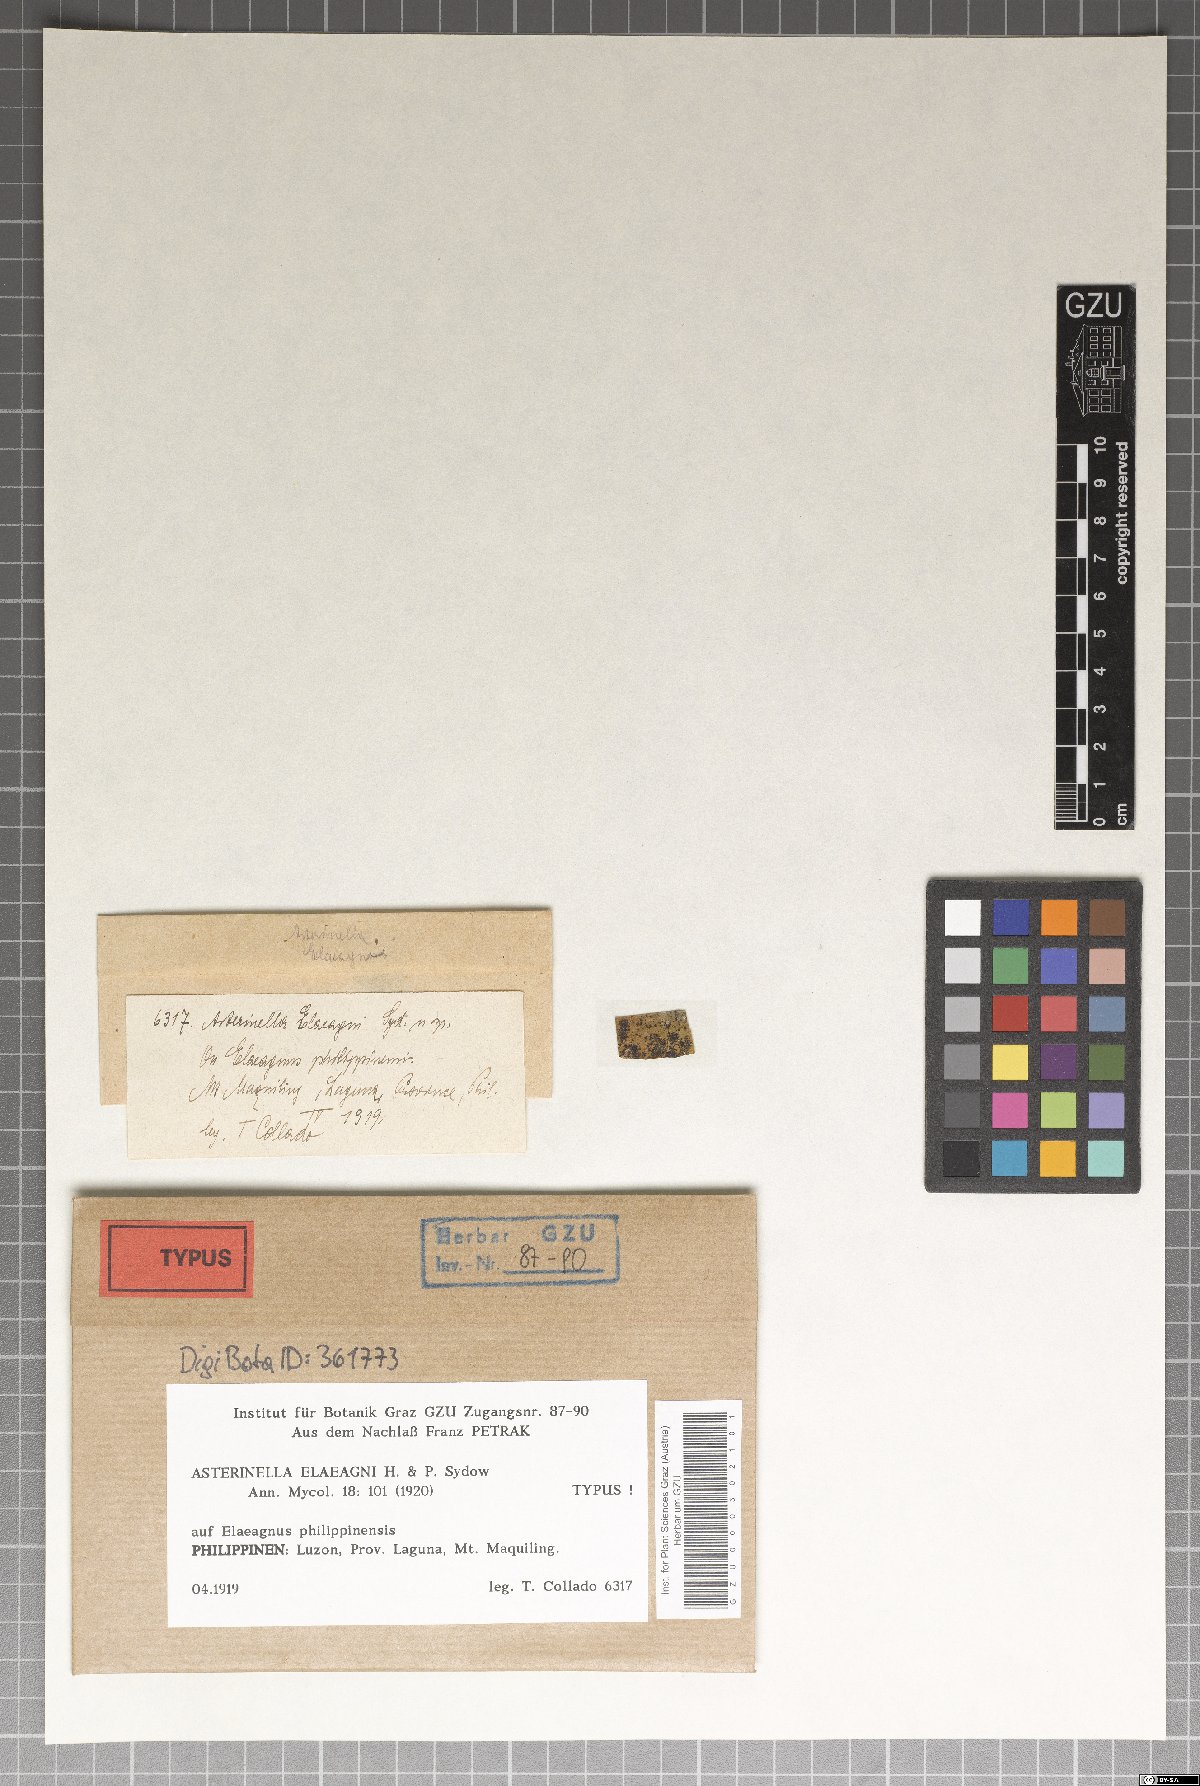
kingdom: Fungi
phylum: Ascomycota
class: Dothideomycetes
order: Asterinales
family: Asterinaceae
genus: Asterina
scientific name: Asterina elaeagni
